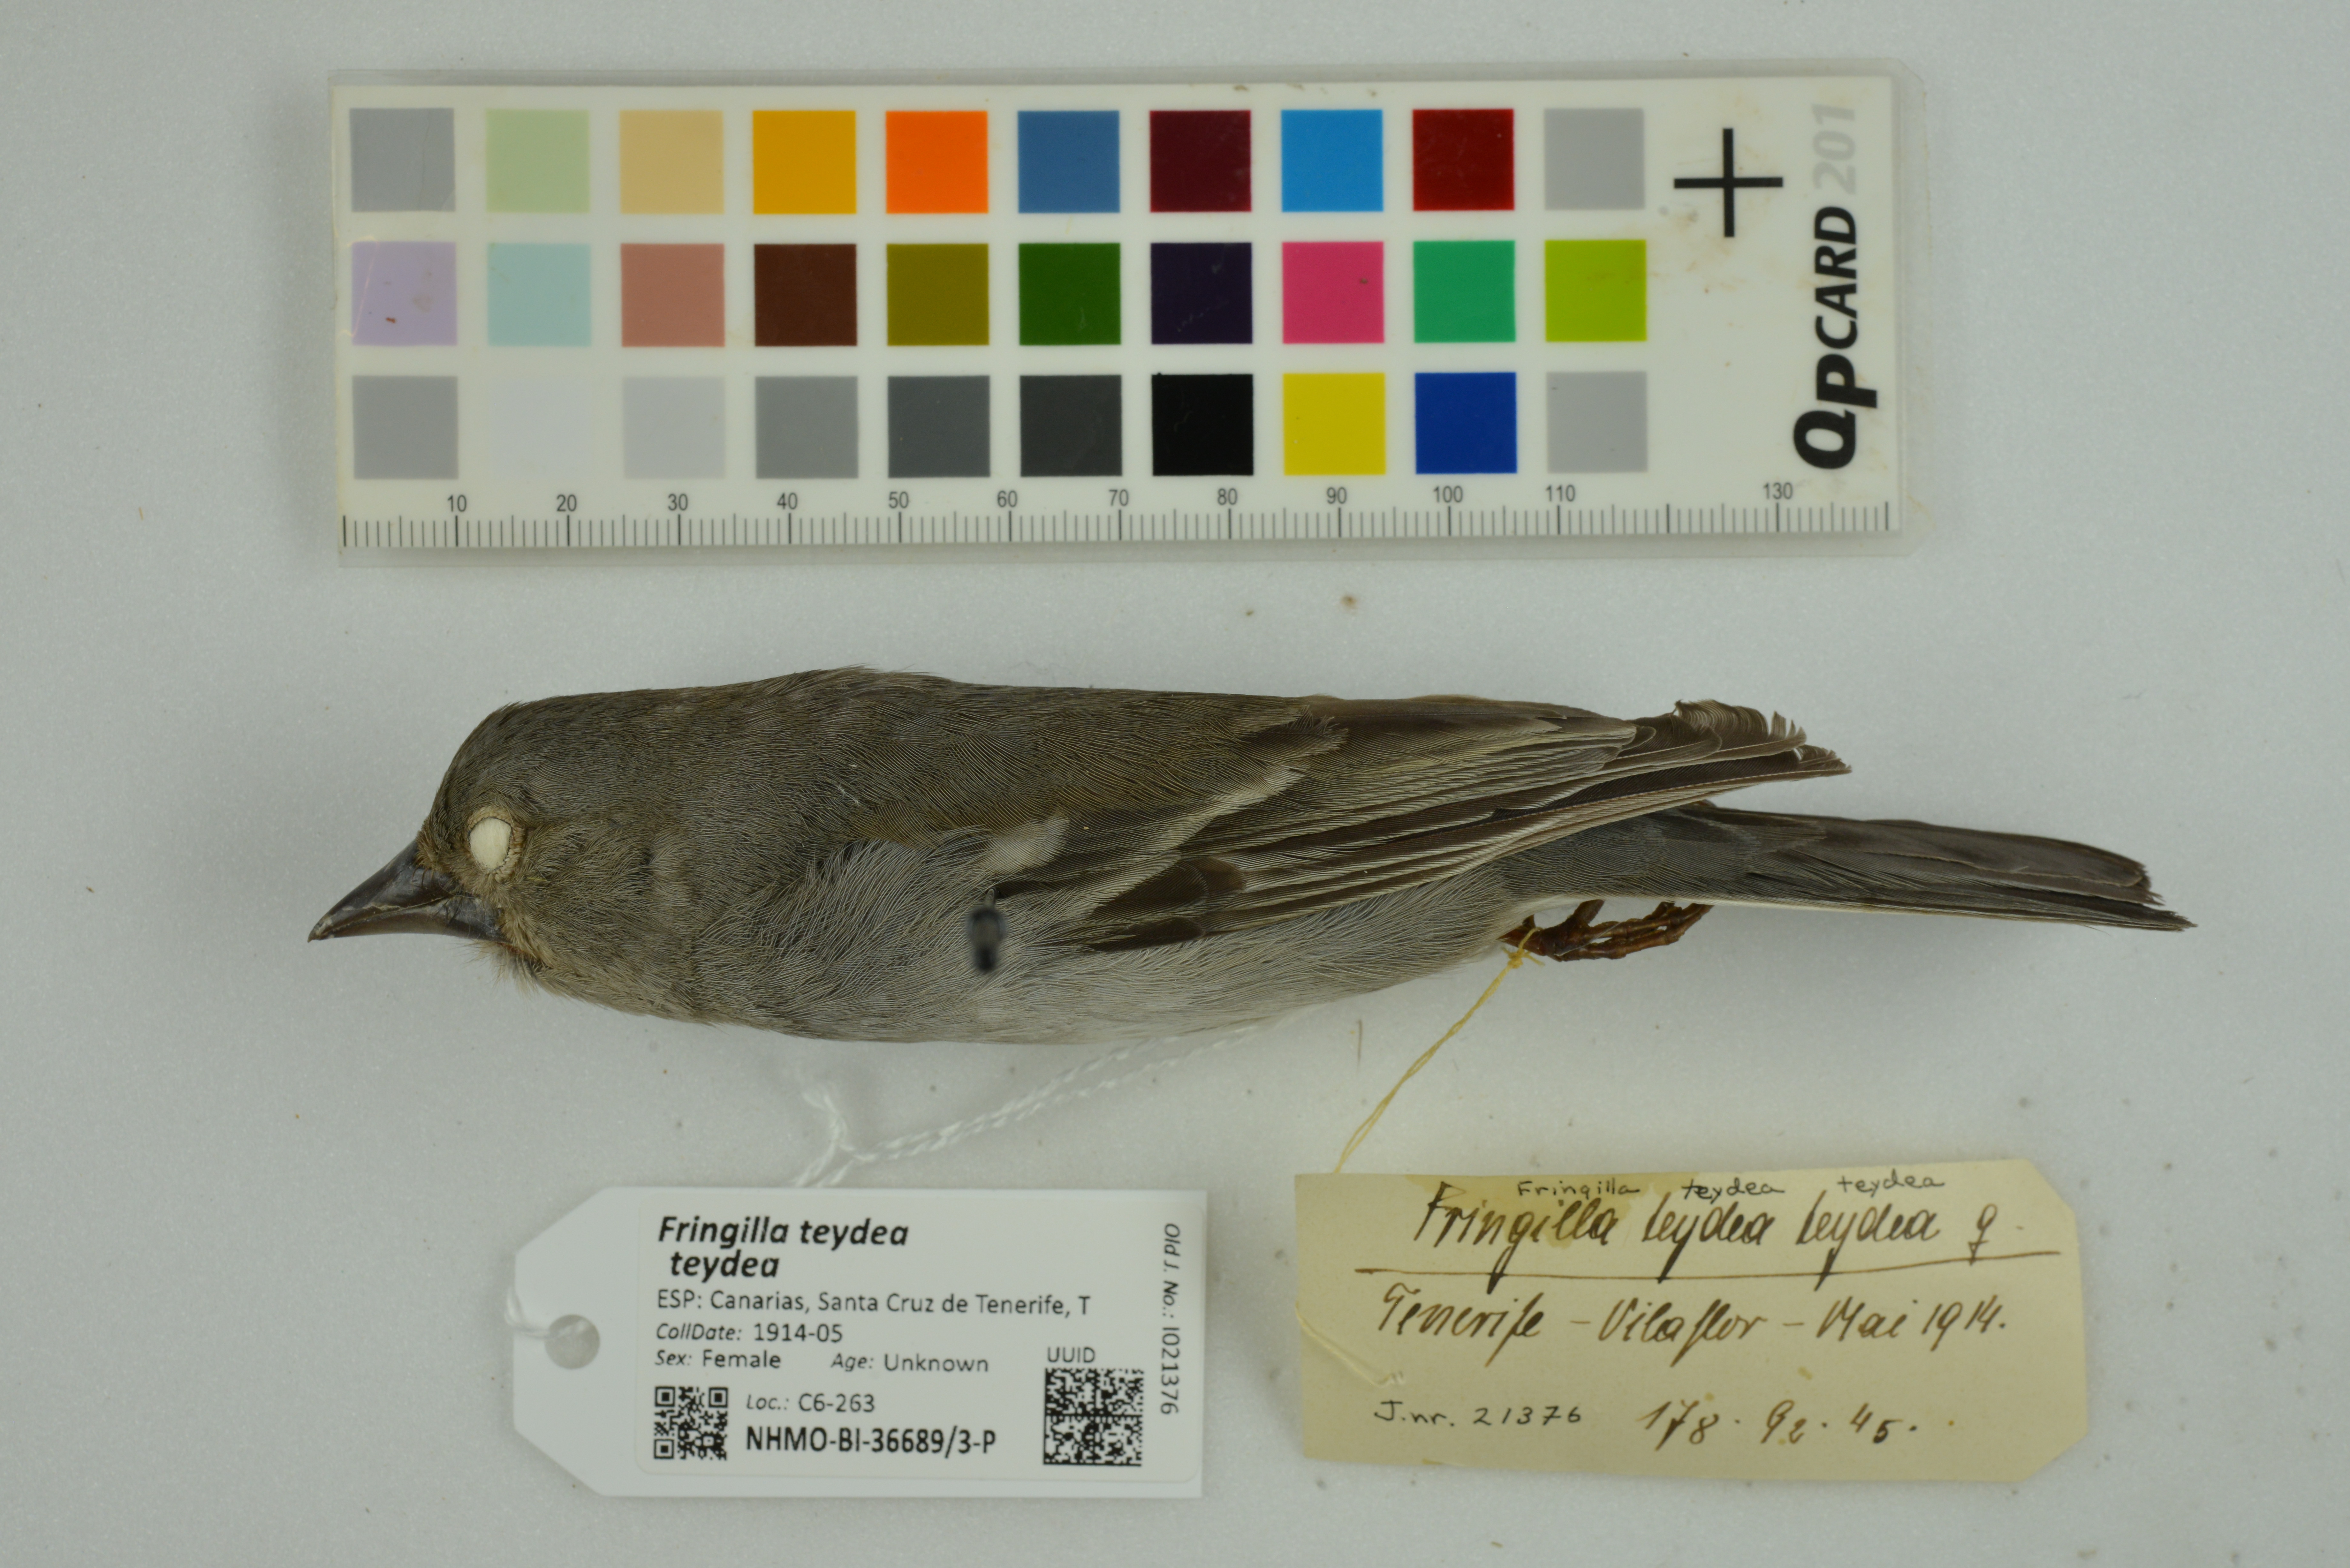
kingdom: Animalia
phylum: Chordata
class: Aves
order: Passeriformes
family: Fringillidae
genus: Fringilla
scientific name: Fringilla teydea
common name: Blue chaffinch
